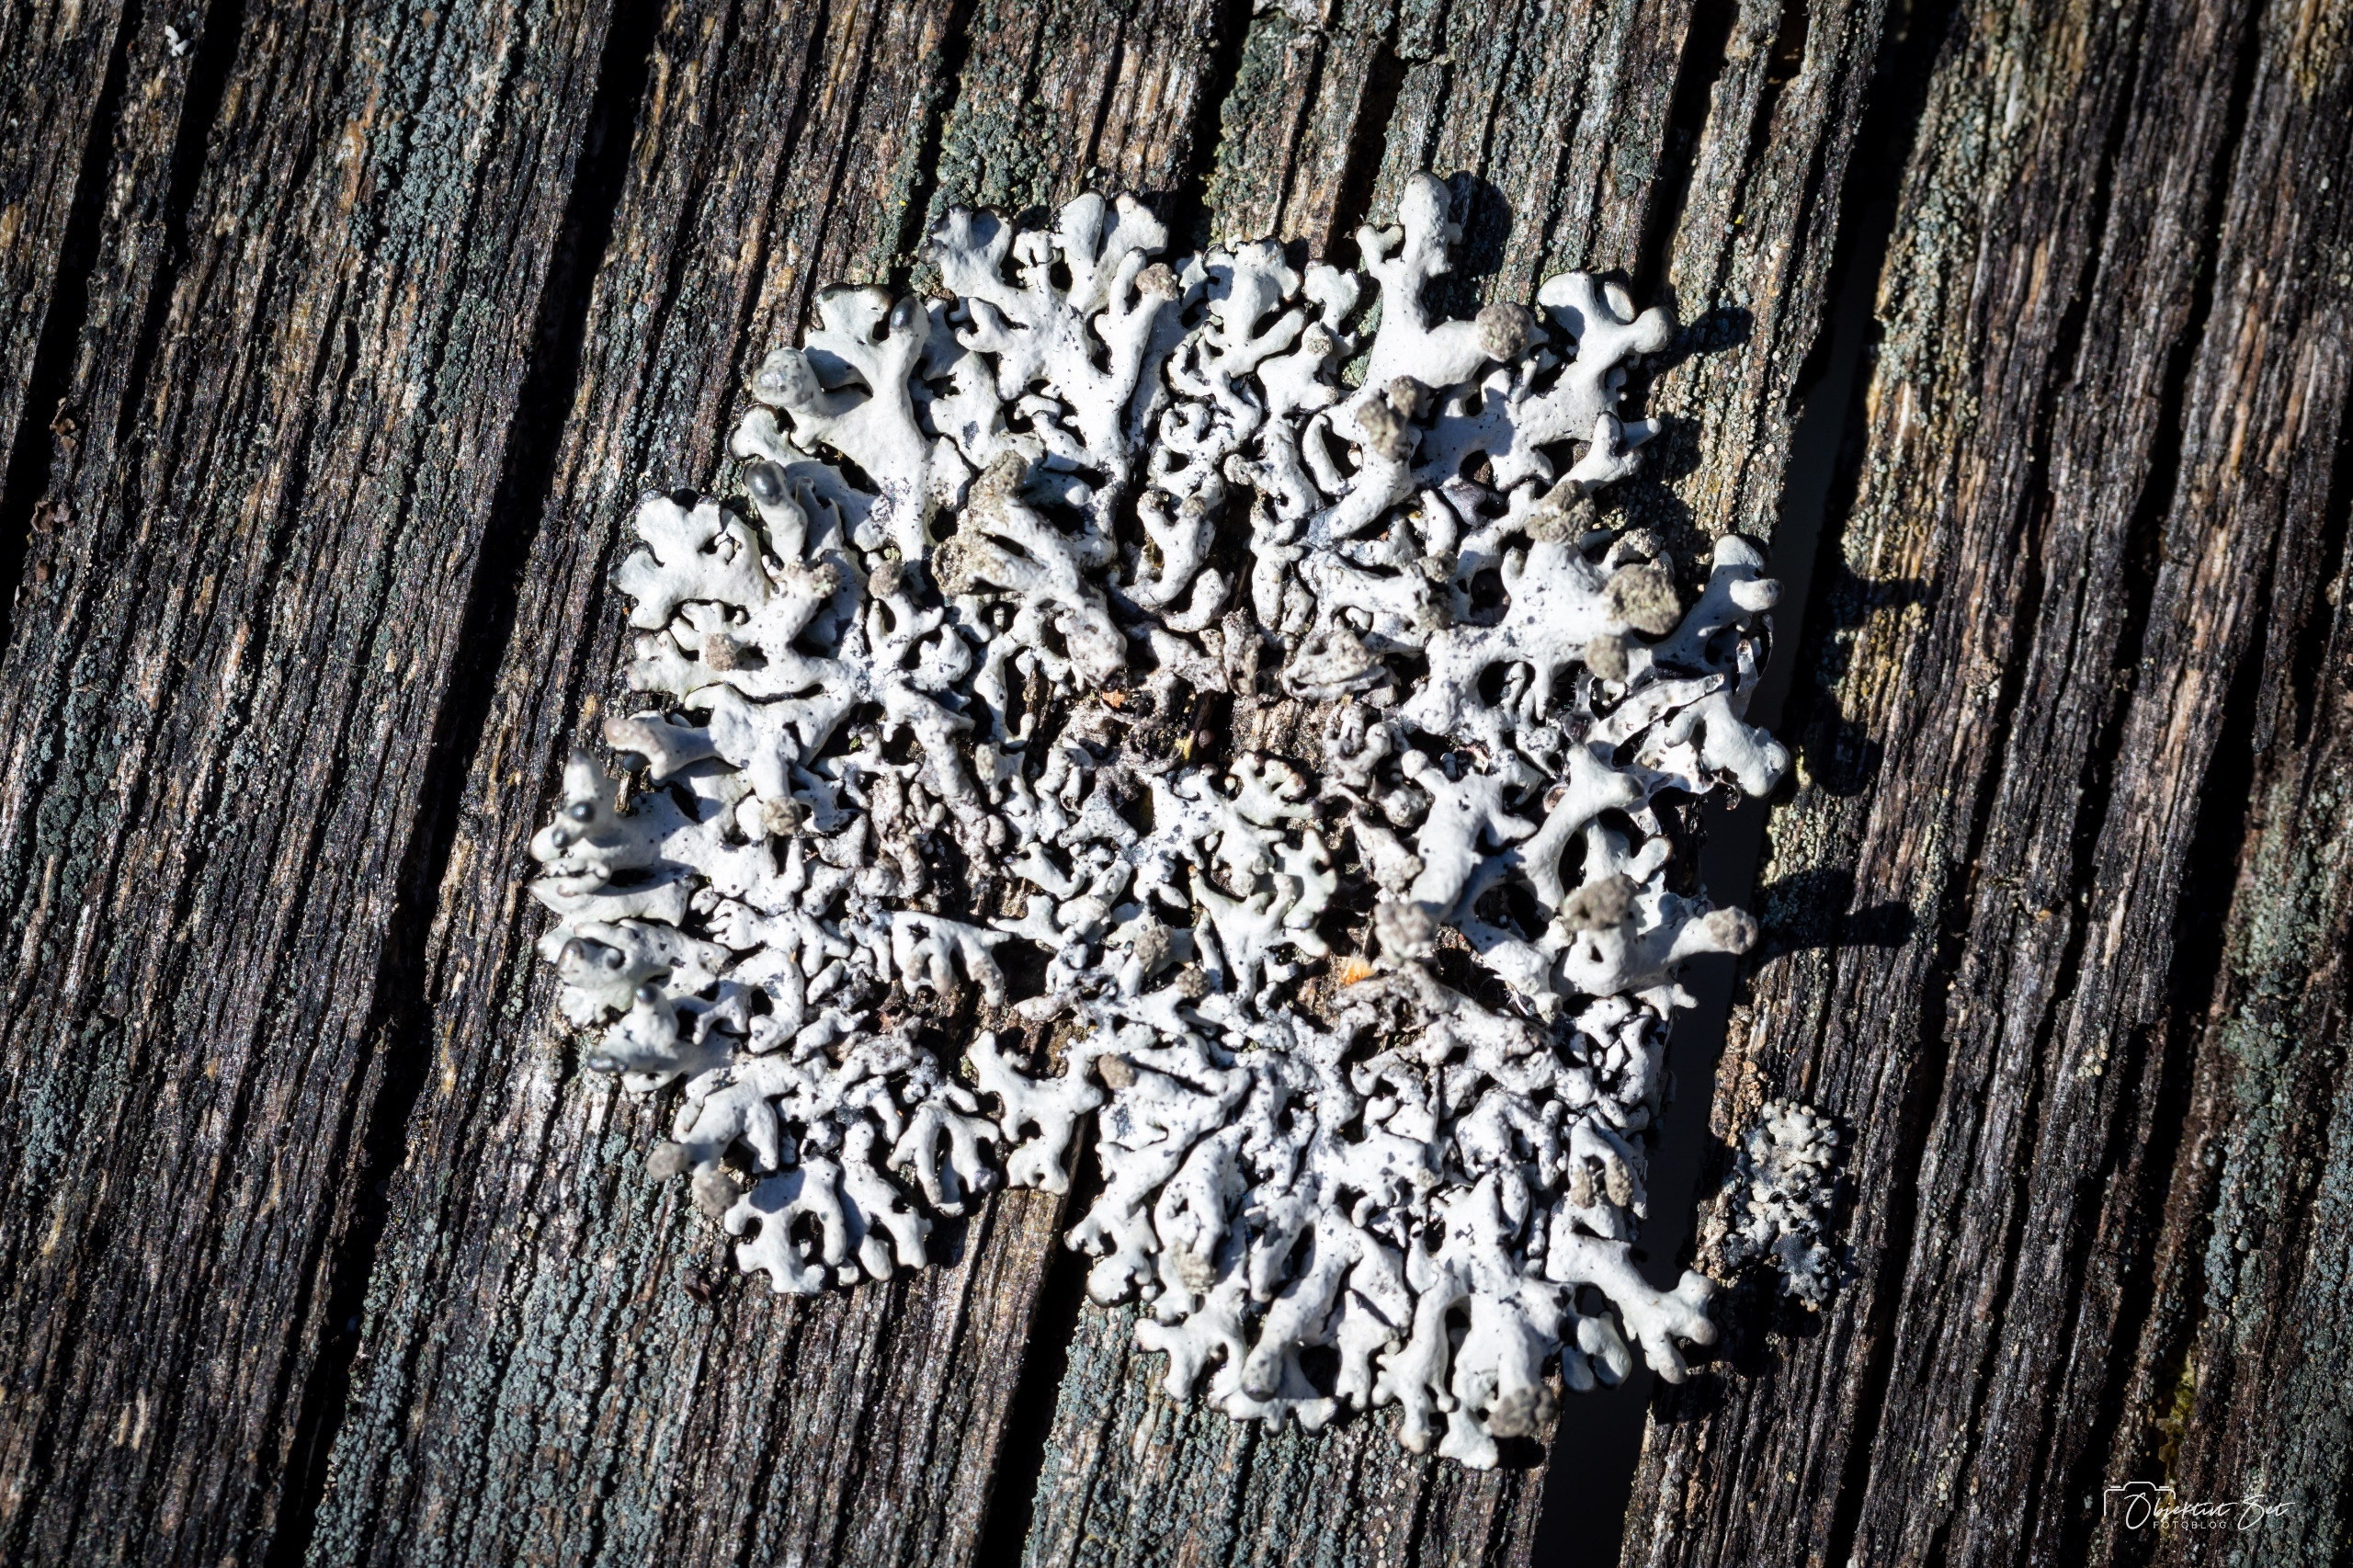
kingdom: Fungi
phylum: Ascomycota
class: Lecanoromycetes
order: Lecanorales
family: Parmeliaceae
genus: Hypogymnia
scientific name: Hypogymnia tubulosa
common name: Finger-kvistlav
